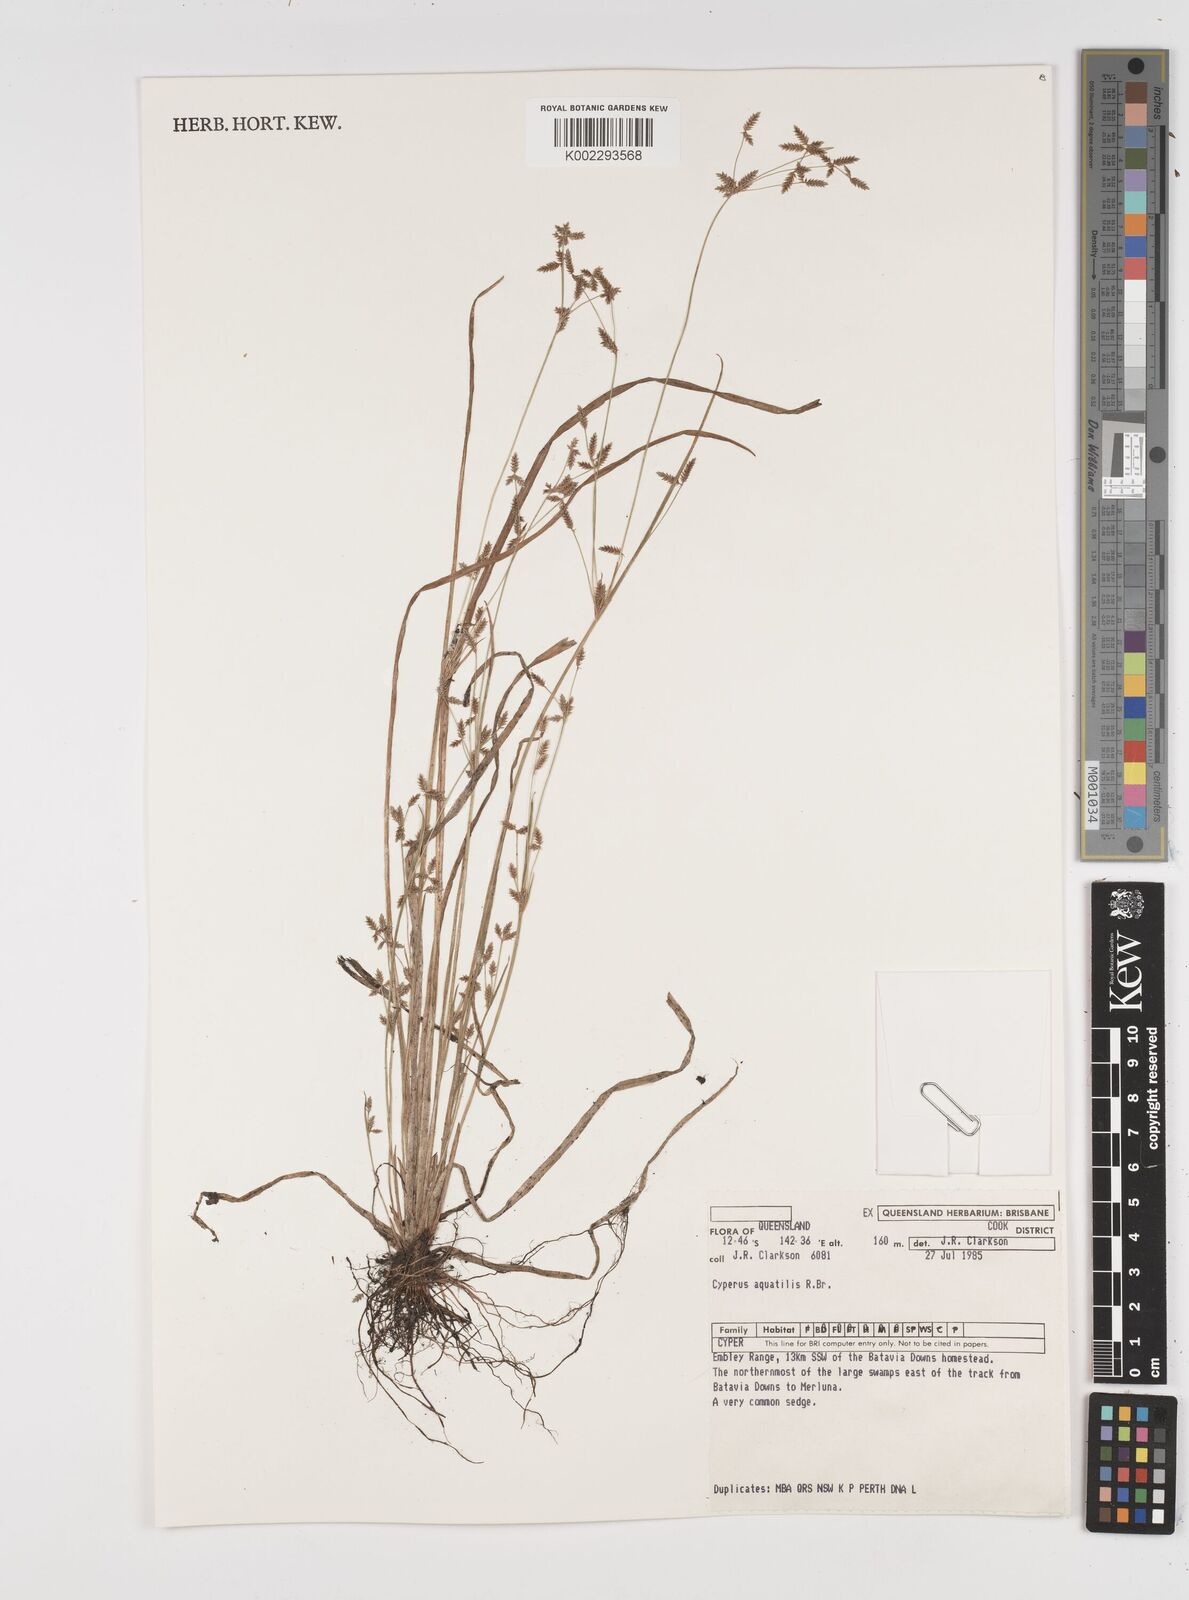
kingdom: Plantae
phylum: Tracheophyta
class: Liliopsida
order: Poales
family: Cyperaceae
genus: Cyperus
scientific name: Cyperus aquatilis
